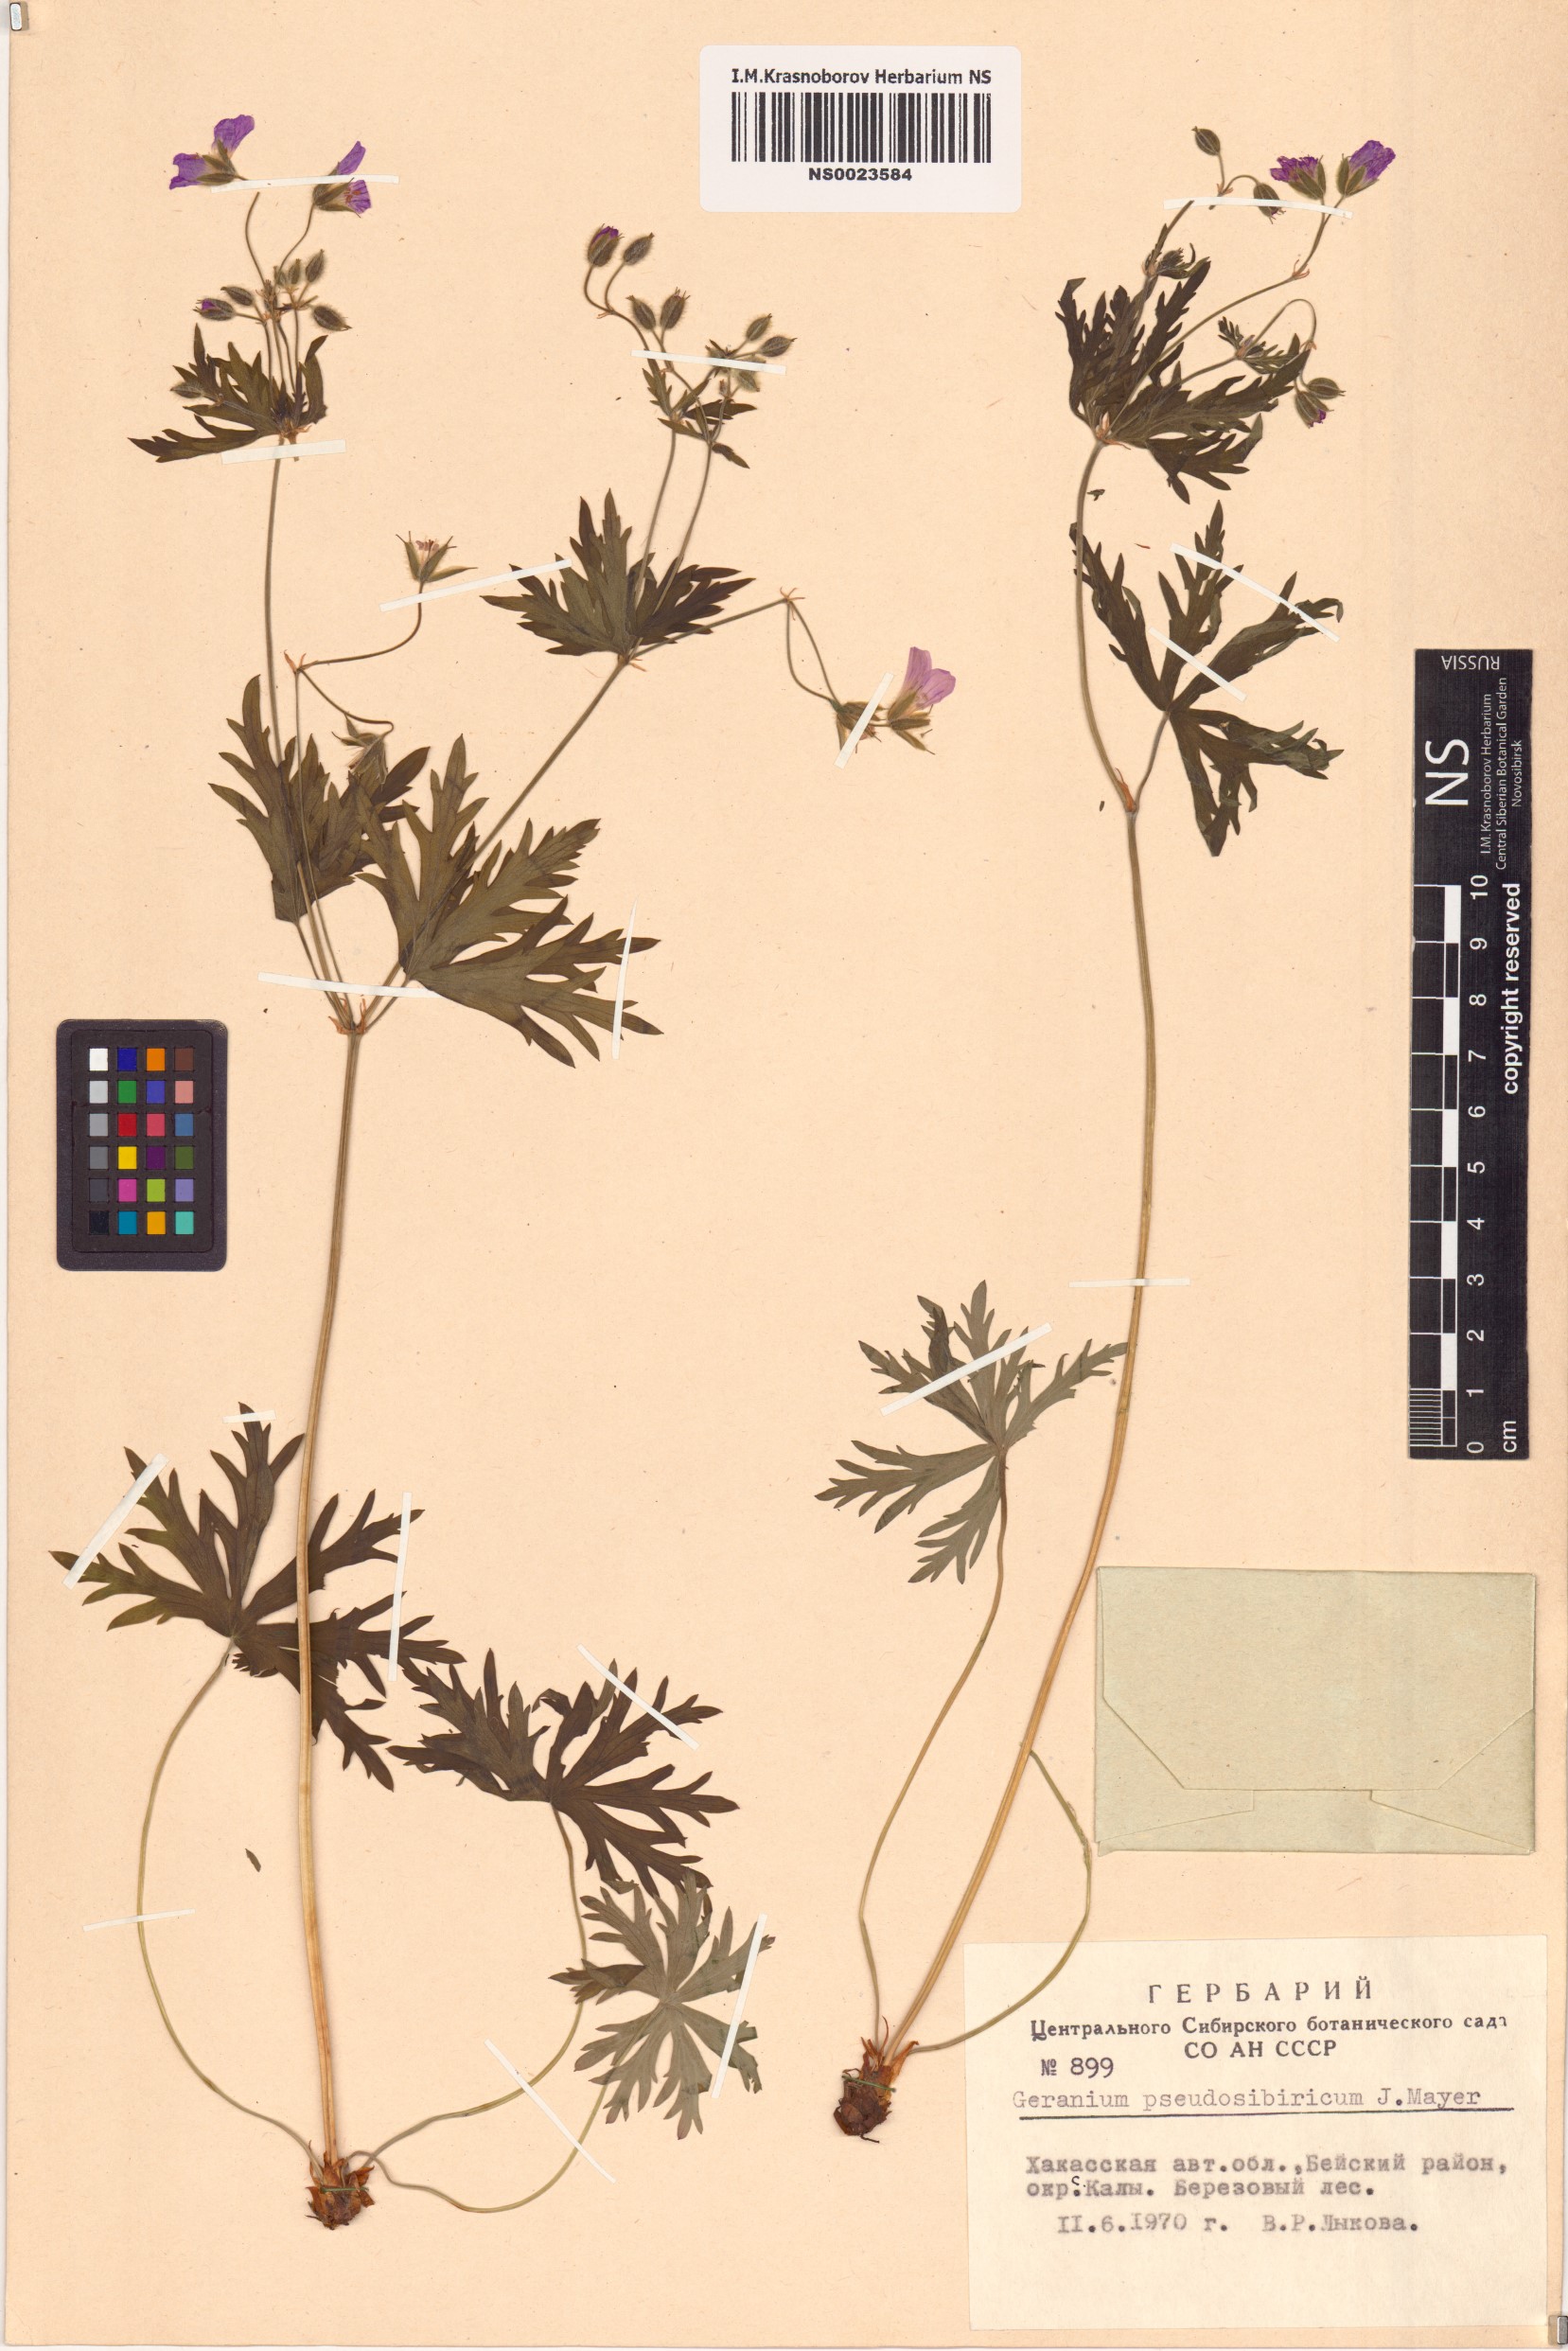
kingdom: Plantae
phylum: Tracheophyta
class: Magnoliopsida
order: Geraniales
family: Geraniaceae
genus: Geranium
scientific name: Geranium pseudosibiricum
